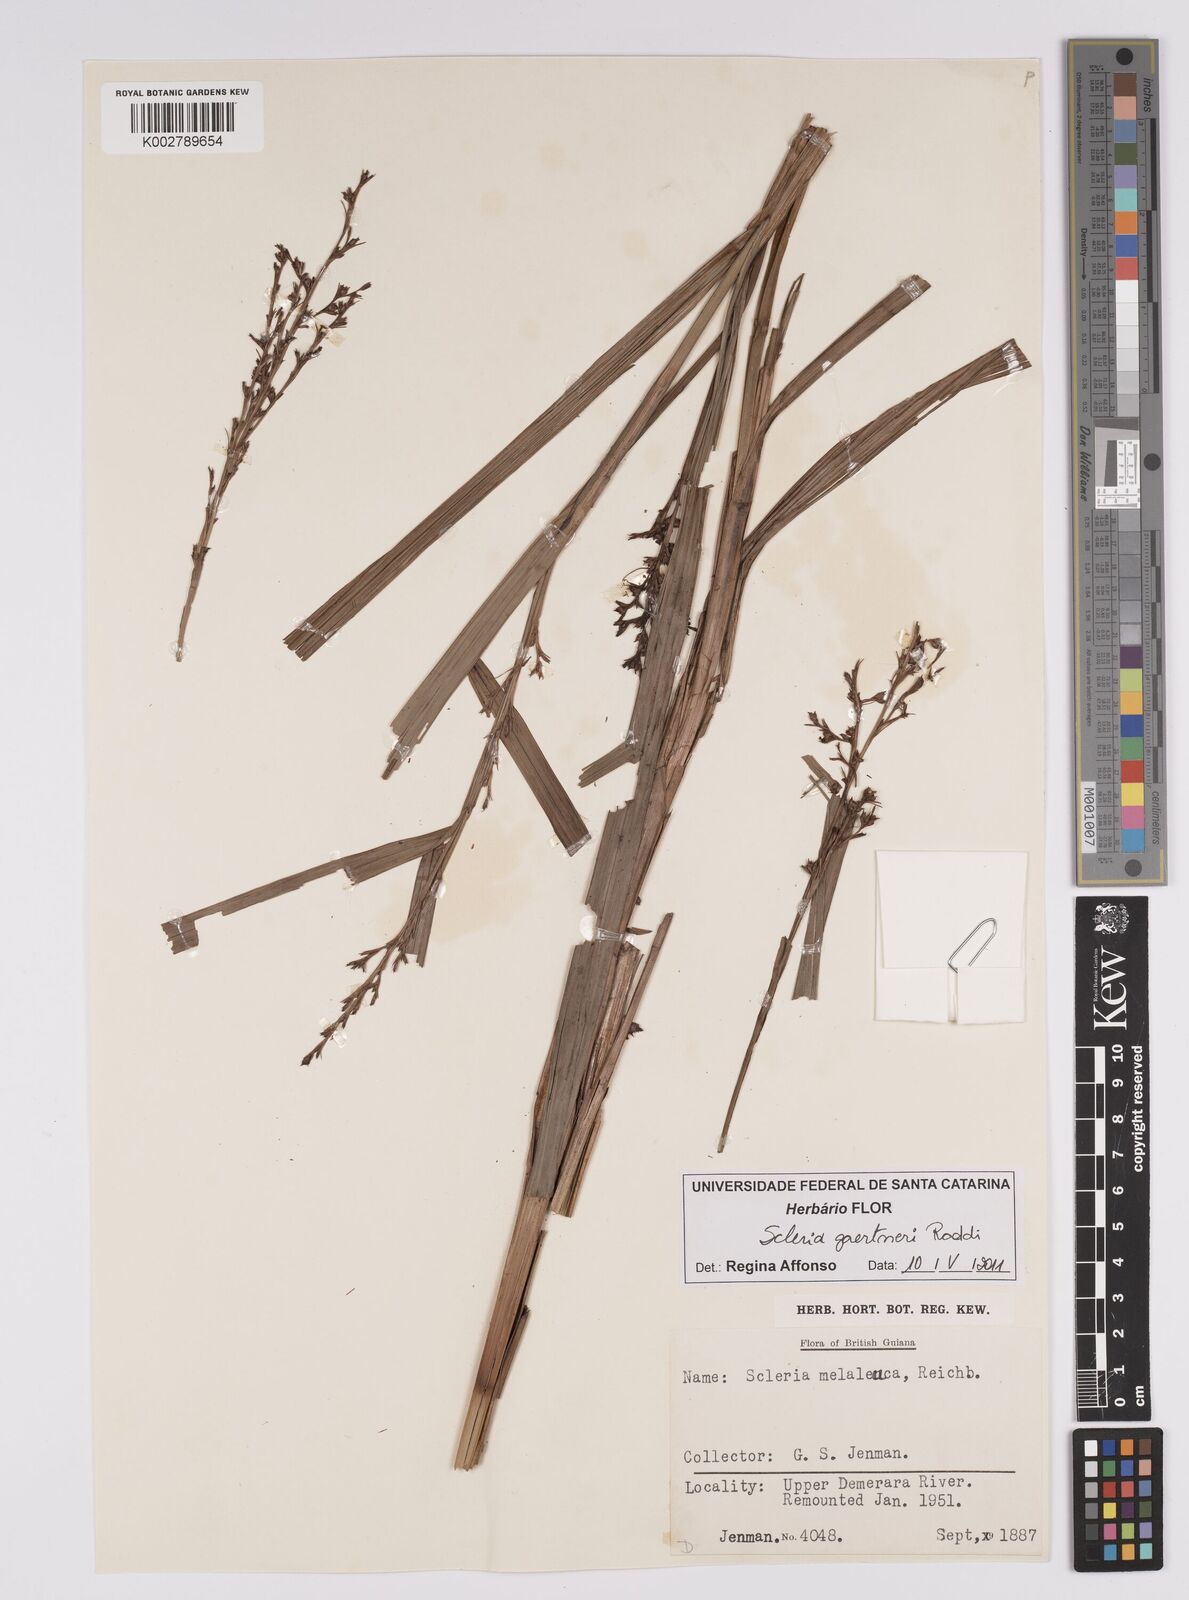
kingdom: Plantae
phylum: Tracheophyta
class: Liliopsida
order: Poales
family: Cyperaceae
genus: Scleria
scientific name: Scleria gaertneri
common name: Cortadera blanca
